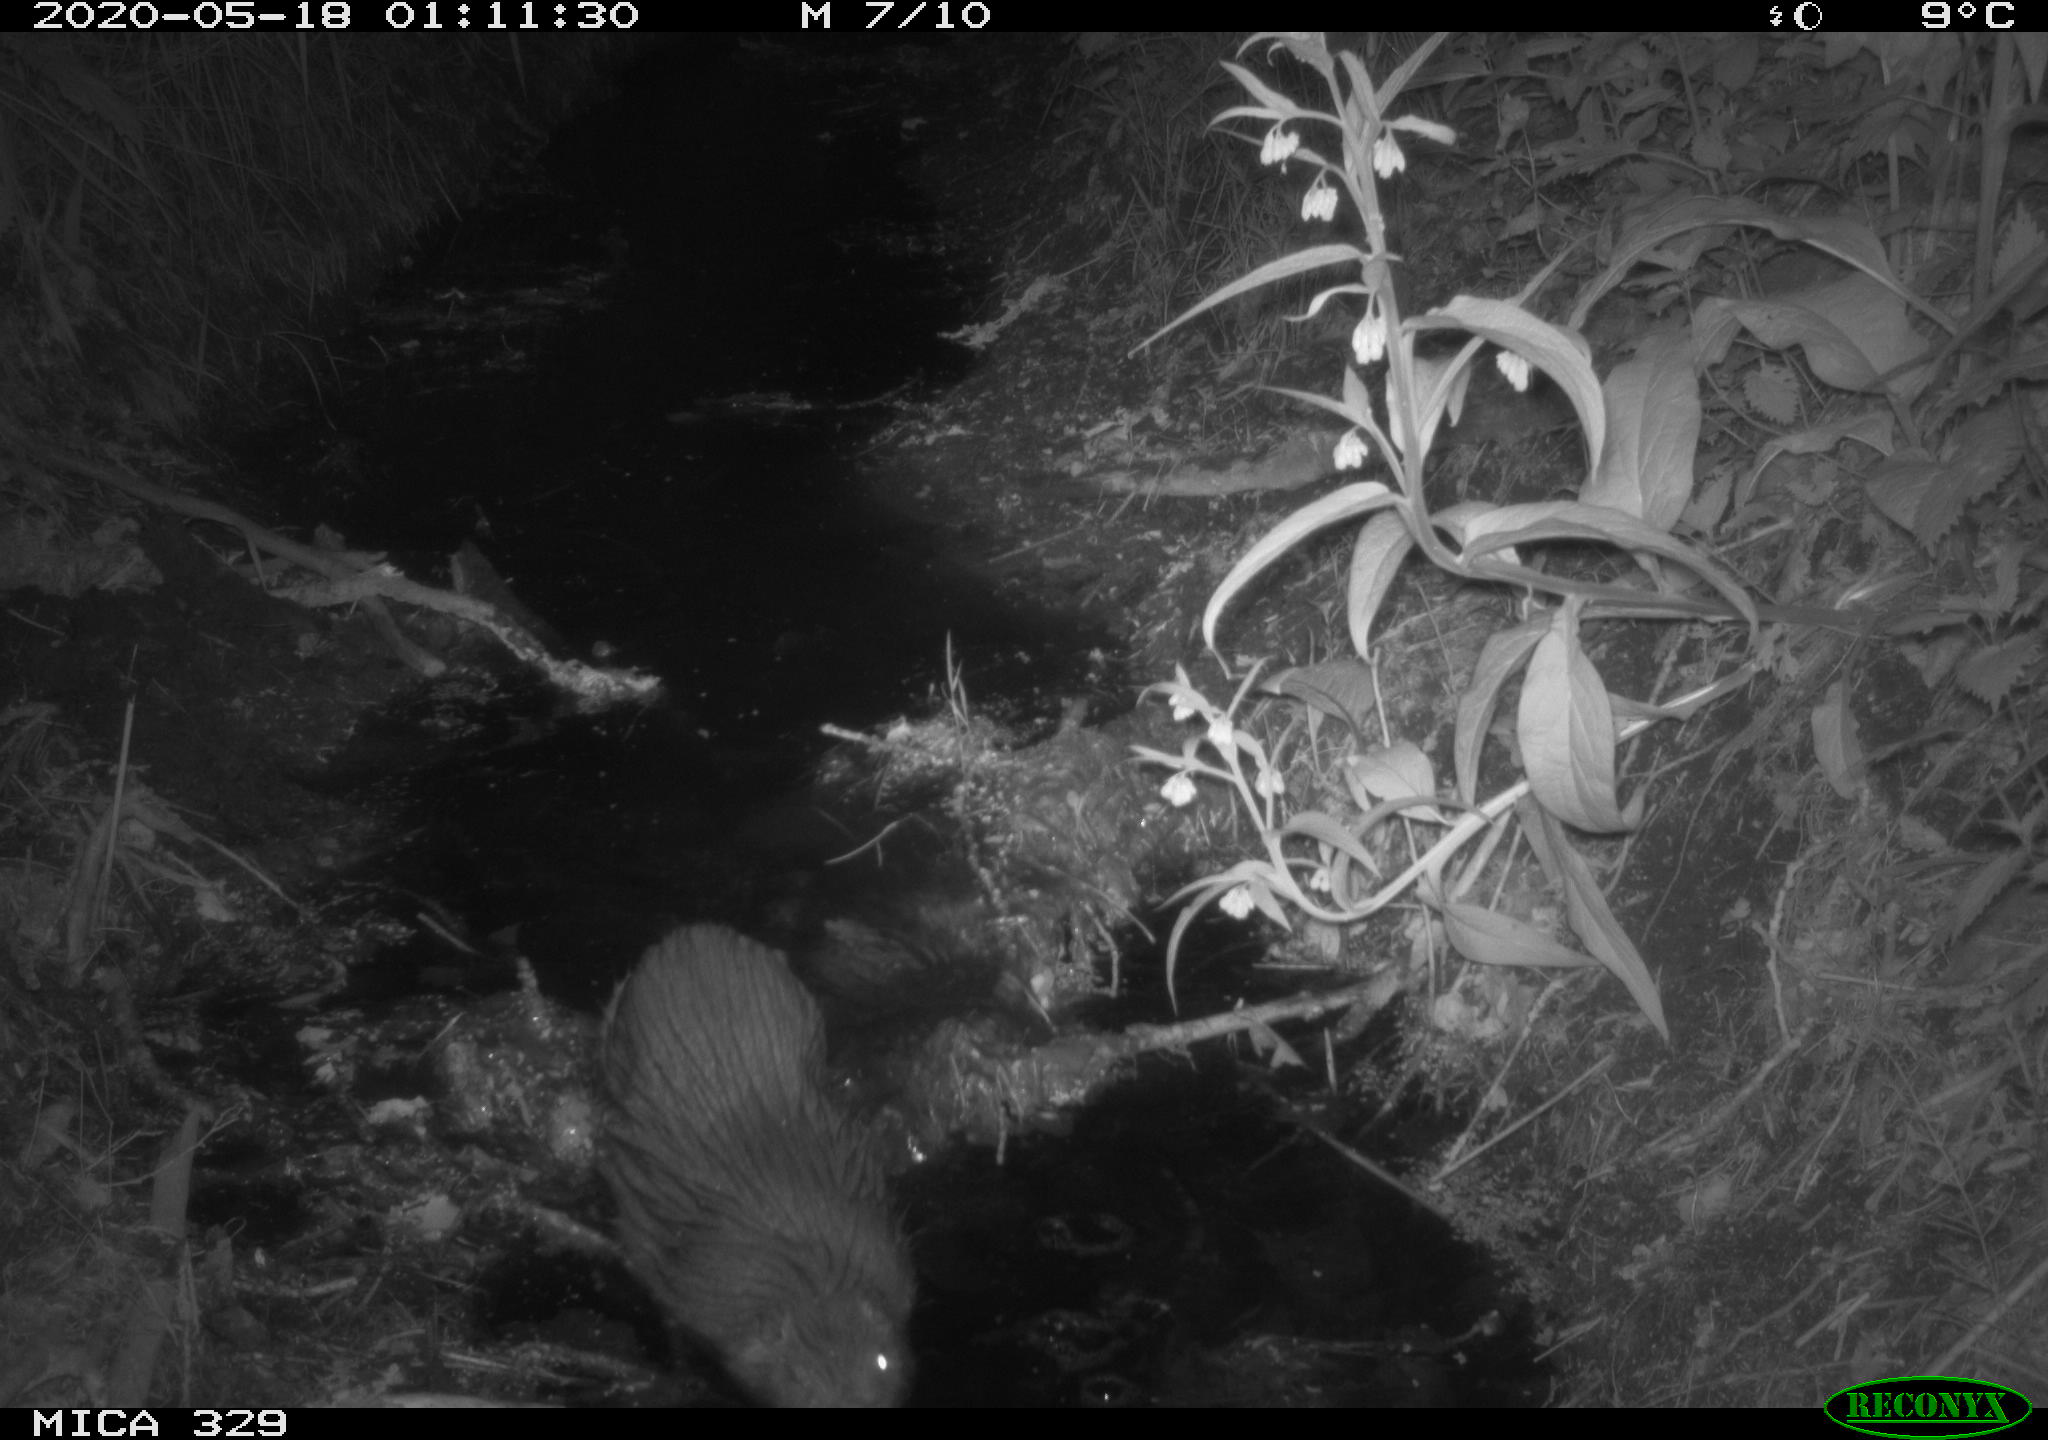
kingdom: Animalia
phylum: Chordata
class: Mammalia
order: Rodentia
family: Myocastoridae
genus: Myocastor
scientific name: Myocastor coypus
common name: Coypu
